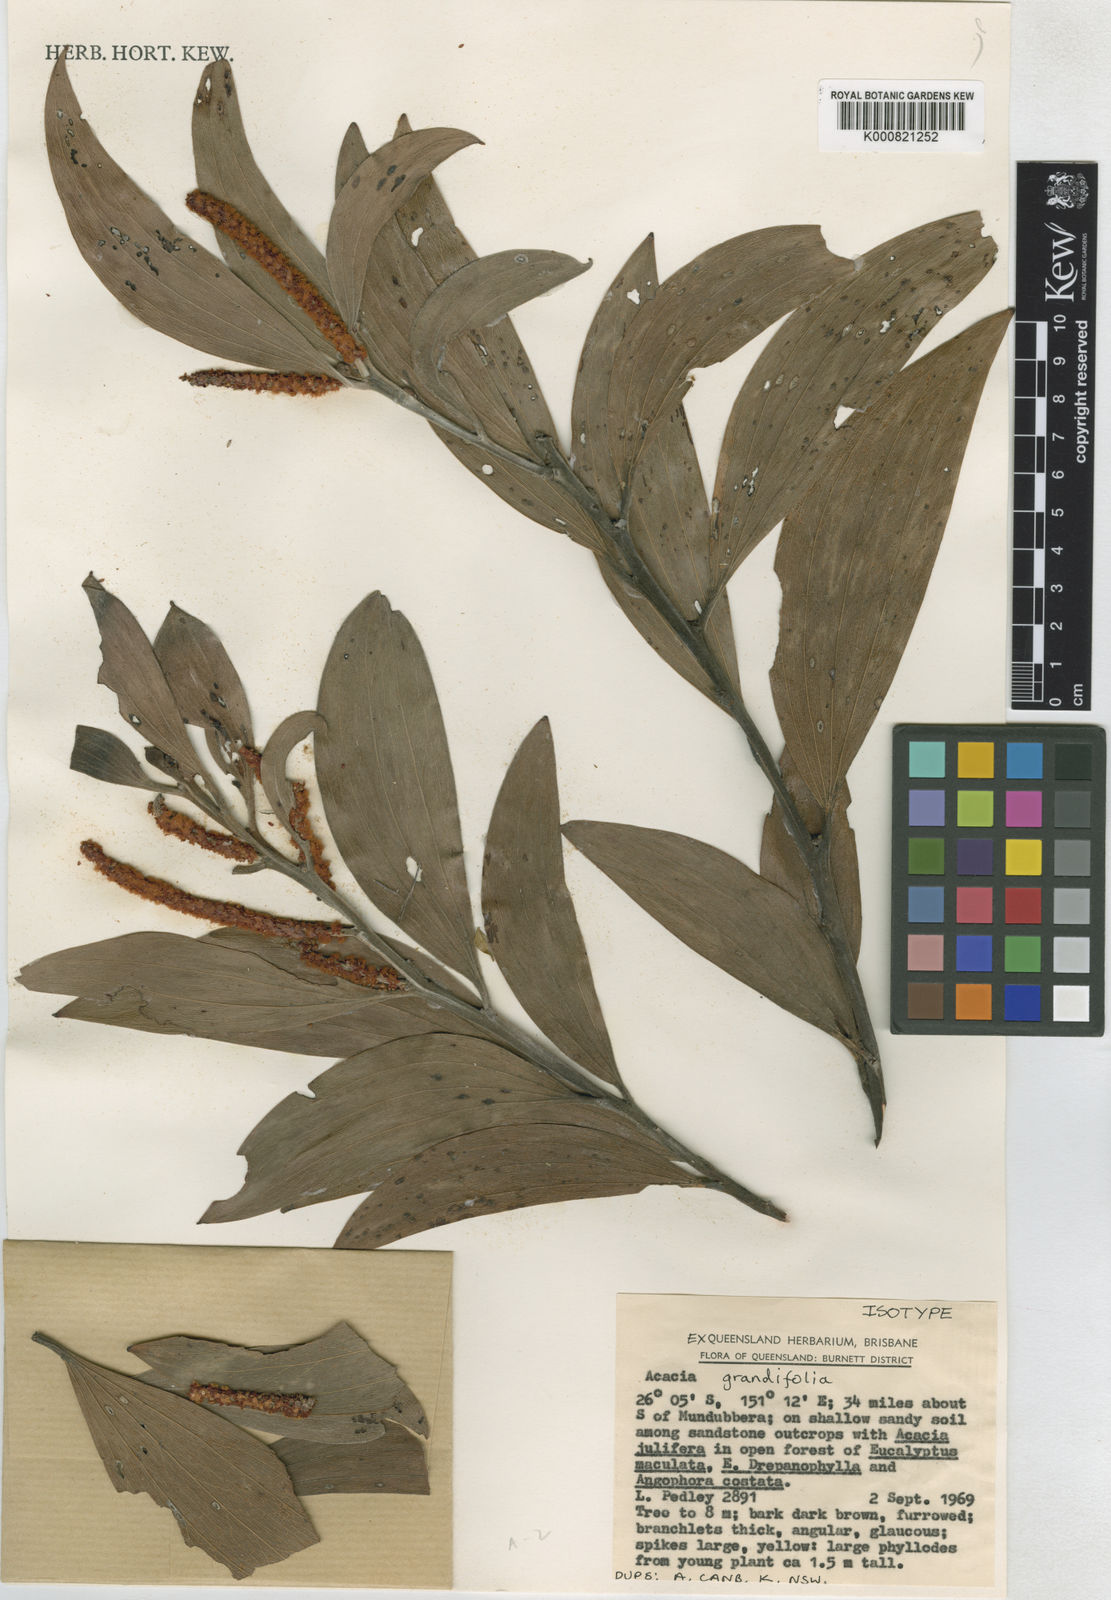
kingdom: Plantae
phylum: Tracheophyta
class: Magnoliopsida
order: Fabales
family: Fabaceae
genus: Acacia
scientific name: Acacia grandifolia
